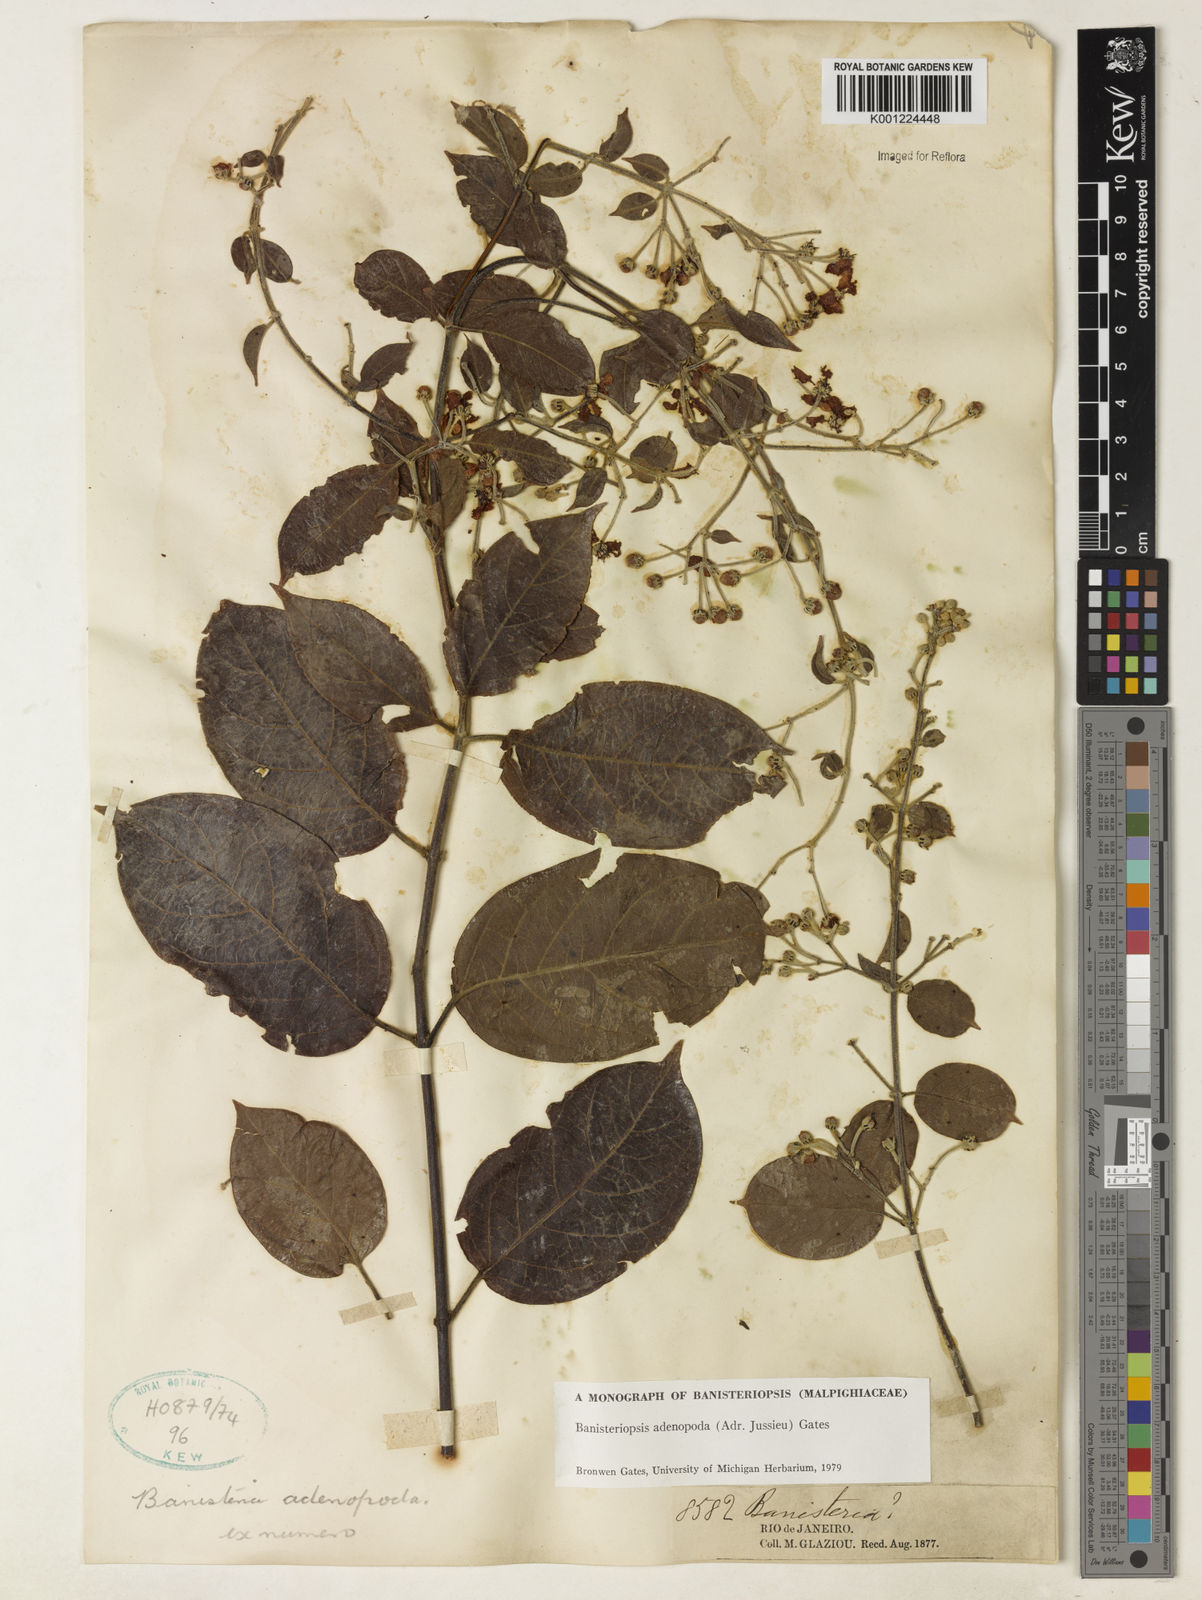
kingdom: Plantae
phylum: Tracheophyta
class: Magnoliopsida
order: Malpighiales
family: Malpighiaceae
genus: Banisteriopsis
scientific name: Banisteriopsis adenopoda
